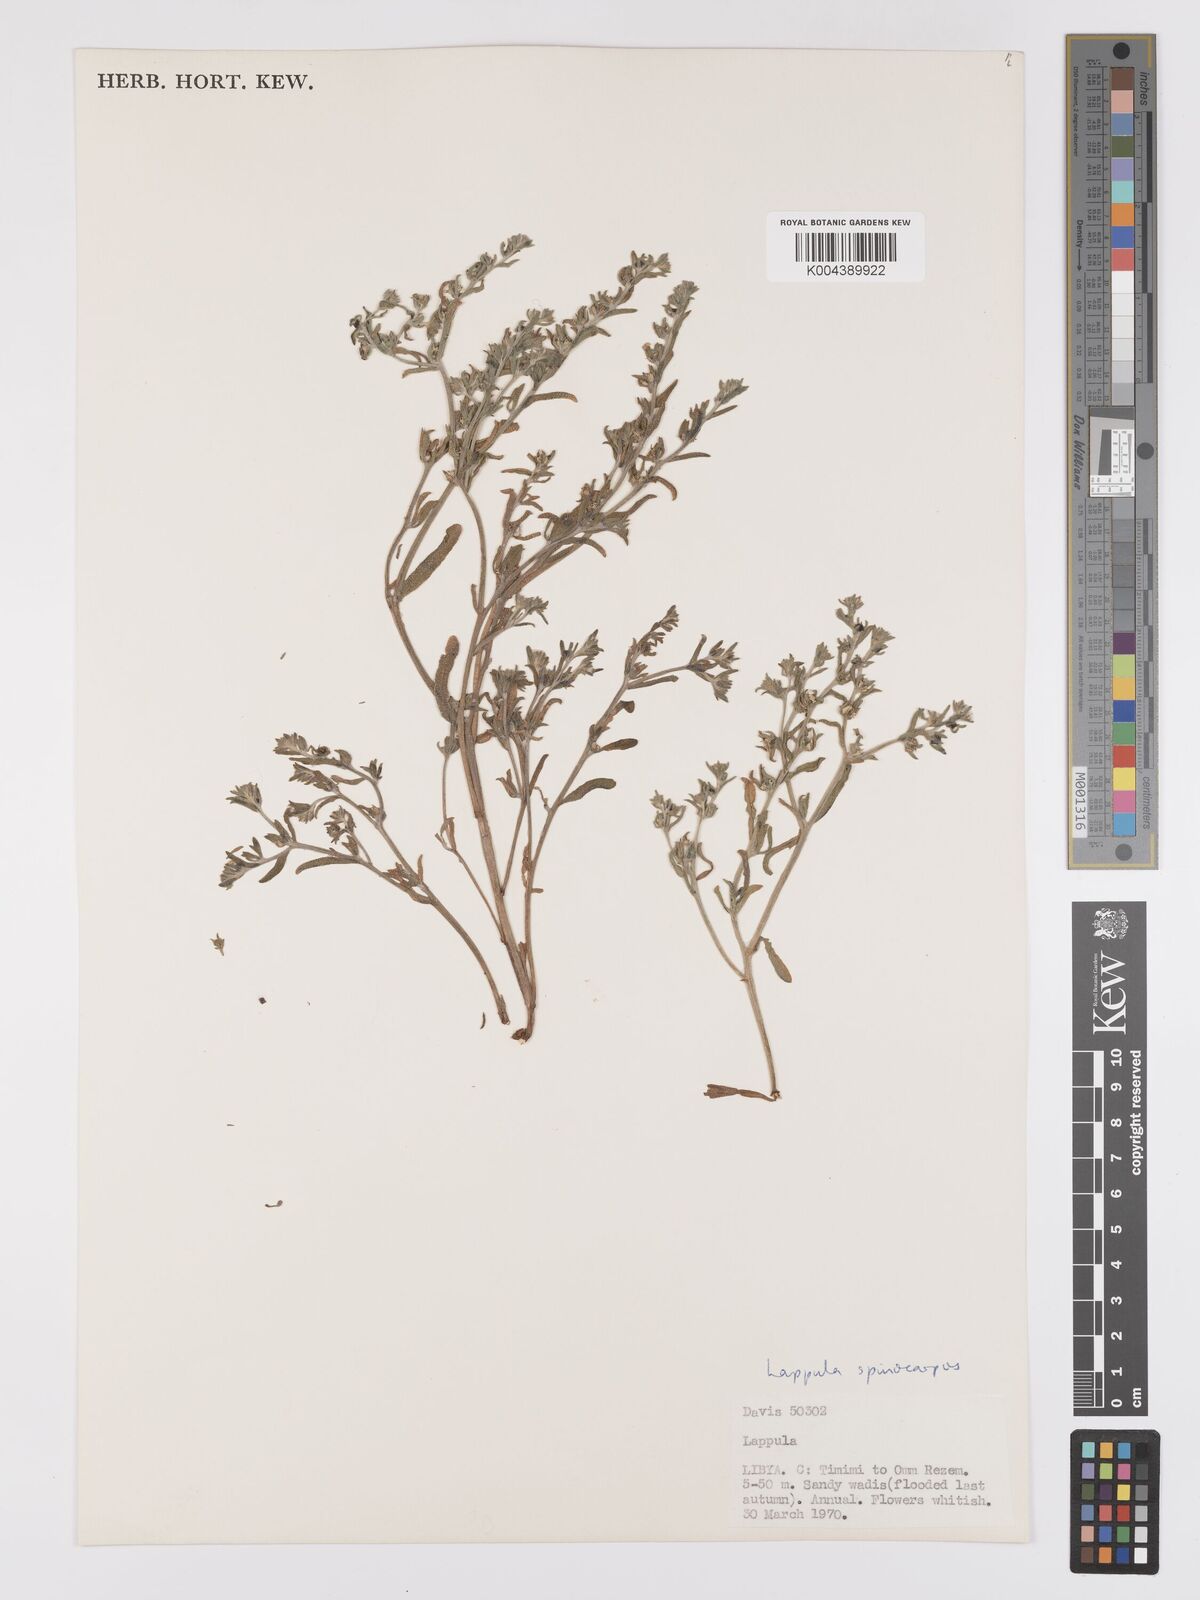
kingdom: Plantae
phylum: Tracheophyta
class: Magnoliopsida
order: Boraginales
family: Boraginaceae
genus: Lappula
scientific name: Lappula spinocarpos
